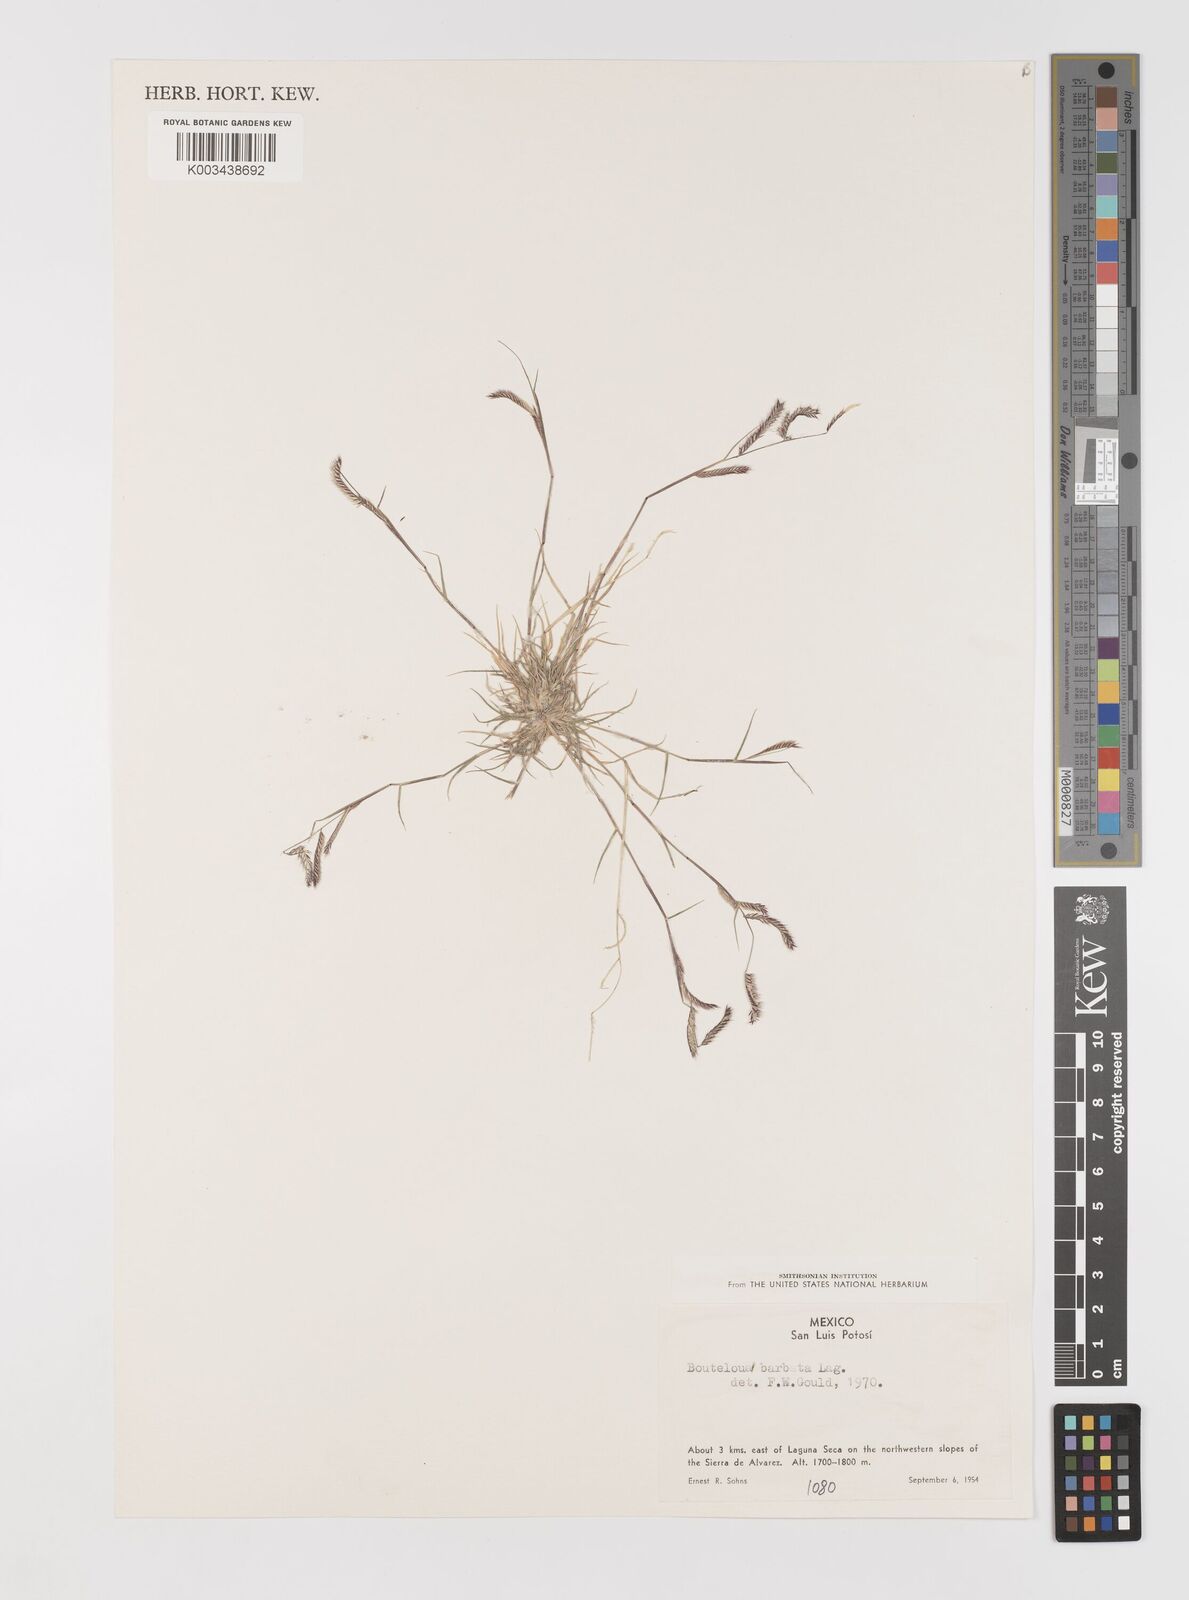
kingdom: Plantae
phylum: Tracheophyta
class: Liliopsida
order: Poales
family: Poaceae
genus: Bouteloua
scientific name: Bouteloua
